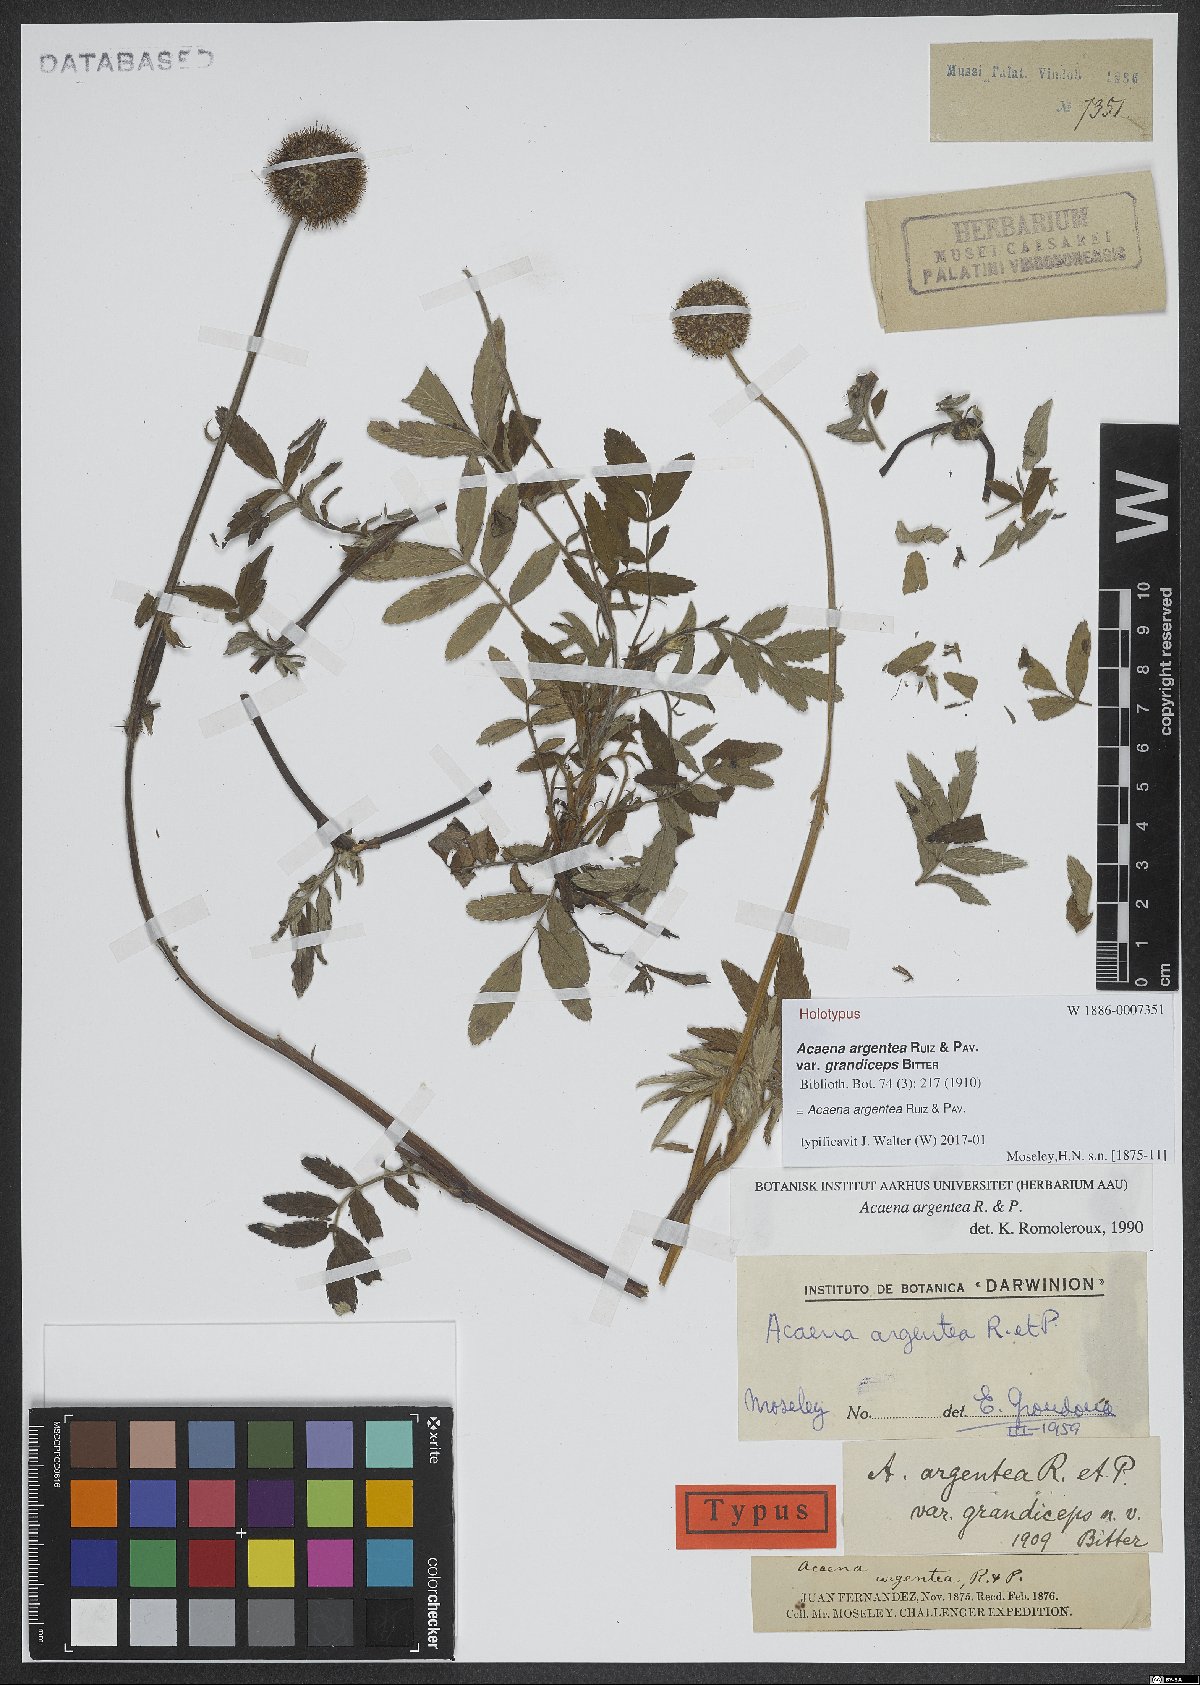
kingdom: Plantae
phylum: Tracheophyta
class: Magnoliopsida
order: Rosales
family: Rosaceae
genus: Acaena
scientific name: Acaena argentea
